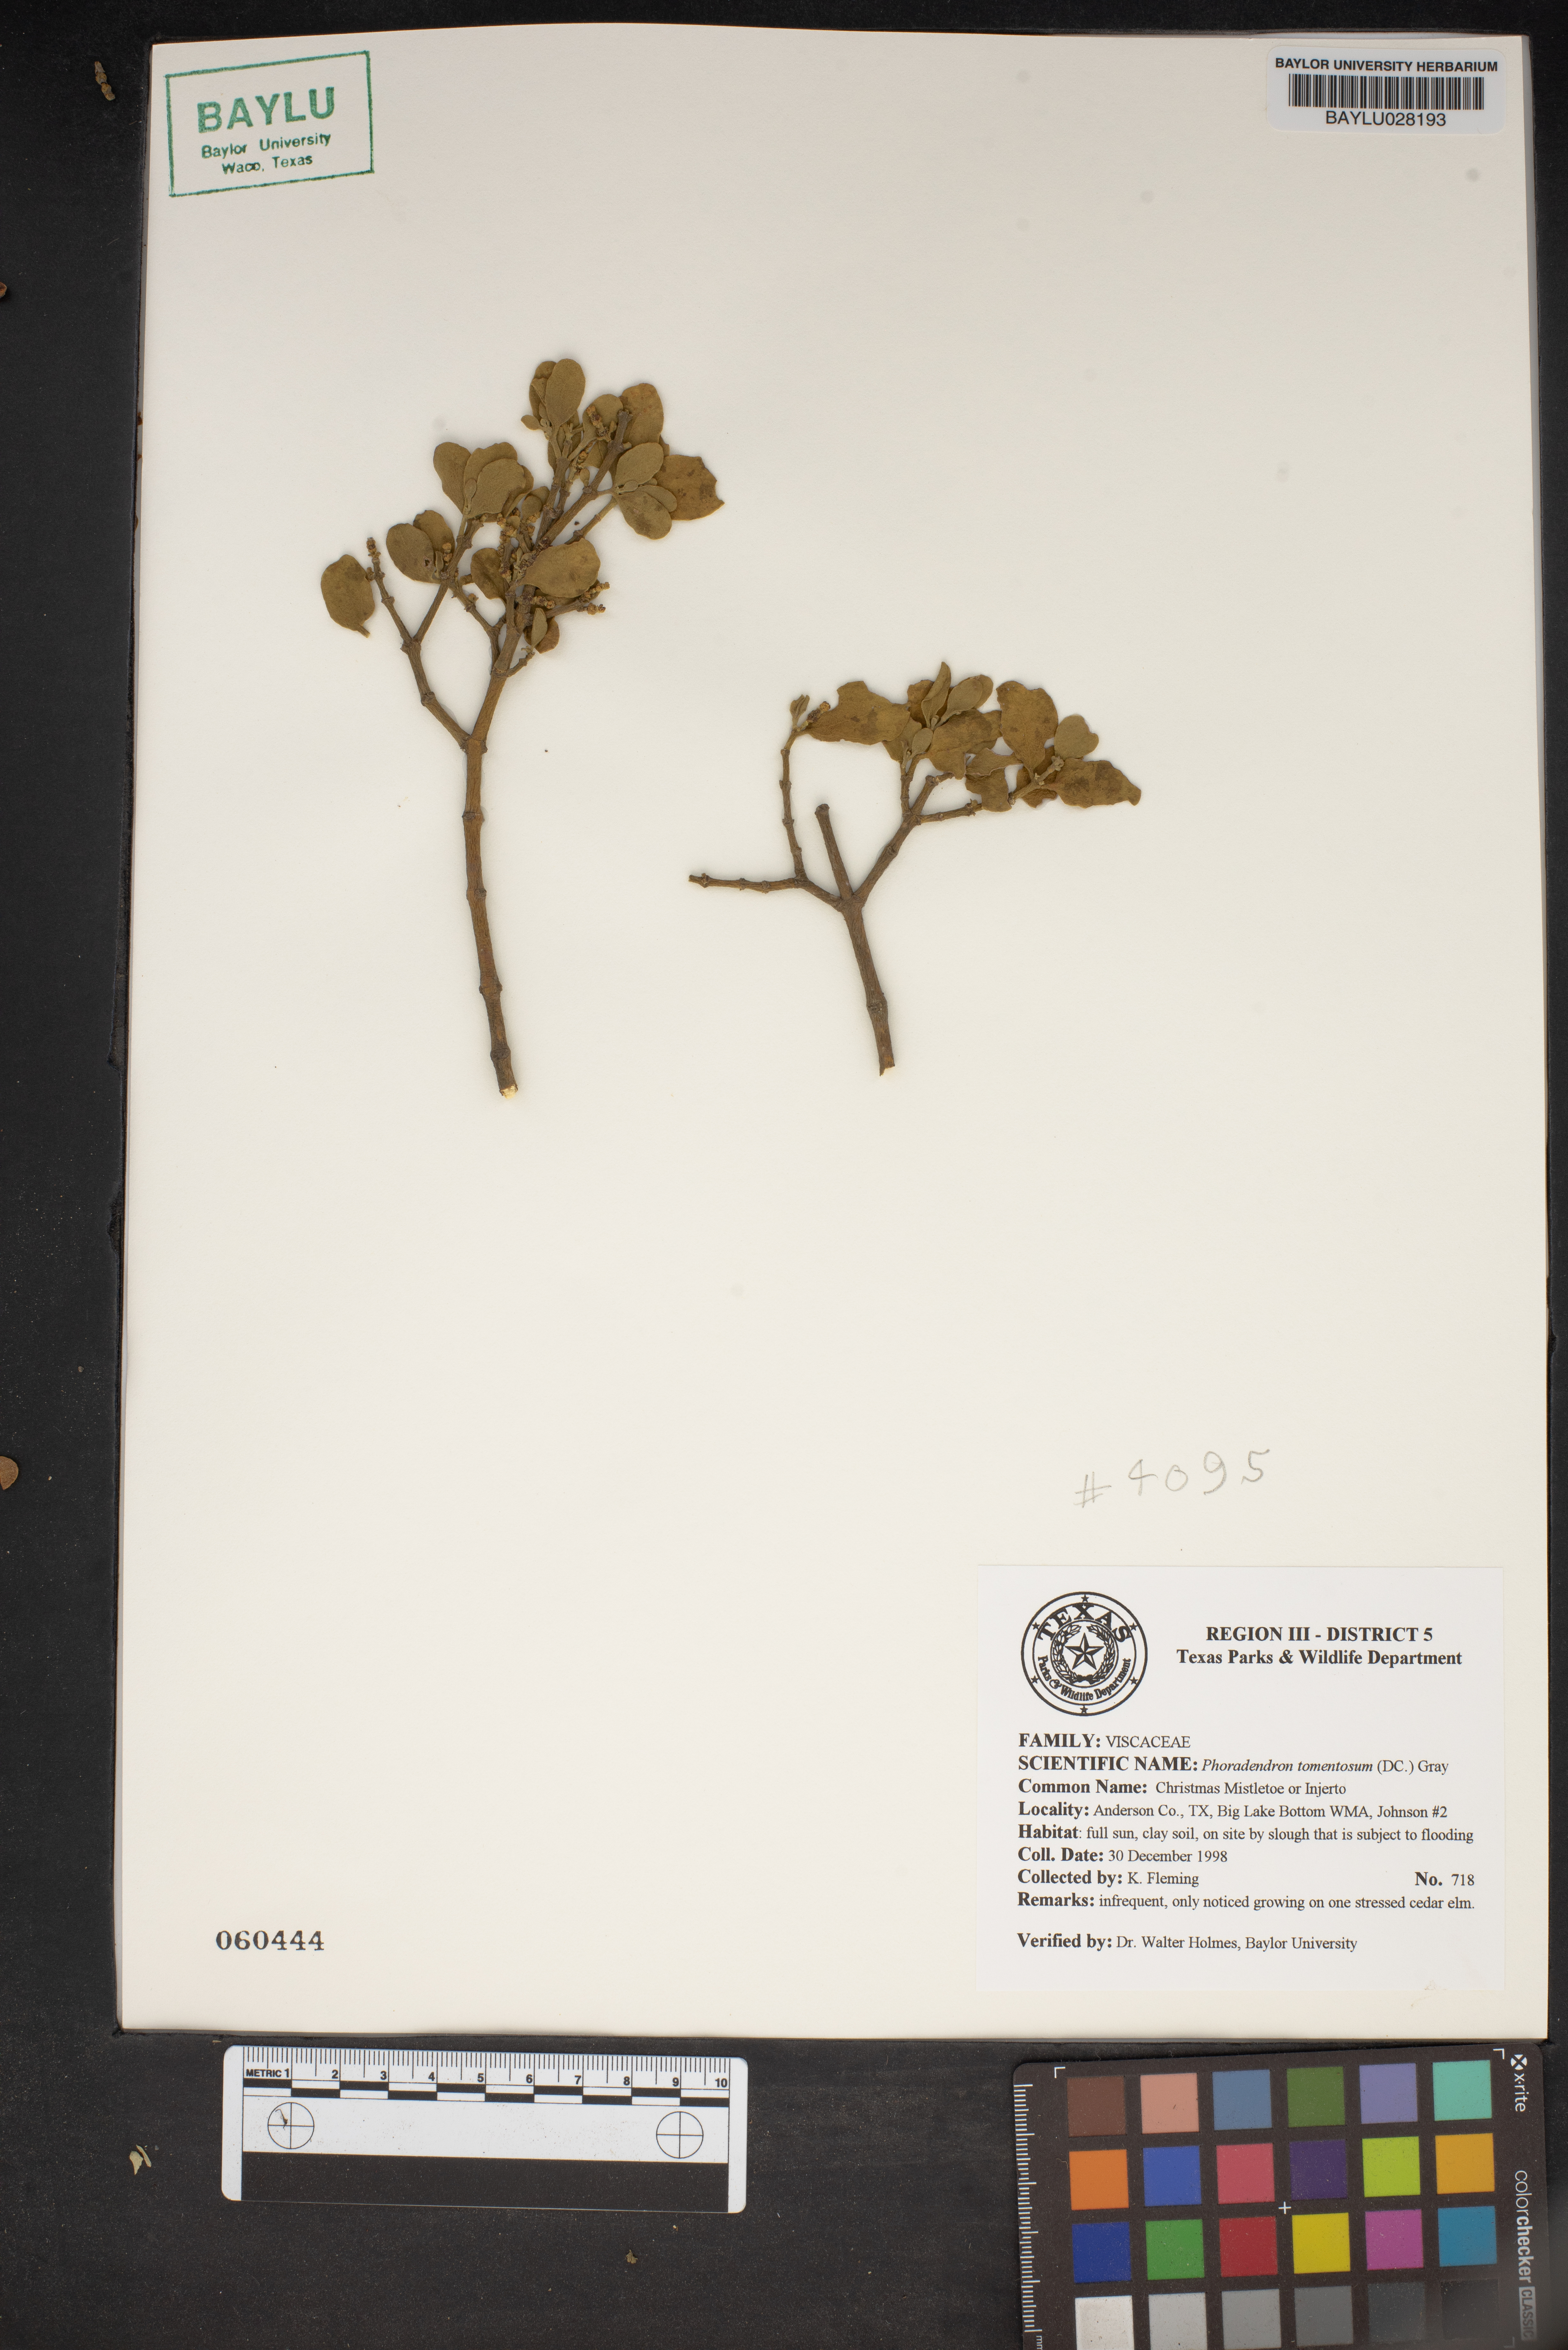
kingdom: Plantae
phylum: Tracheophyta
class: Magnoliopsida
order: Santalales
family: Viscaceae
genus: Phoradendron
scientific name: Phoradendron leucarpum
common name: Pacific mistletoe
